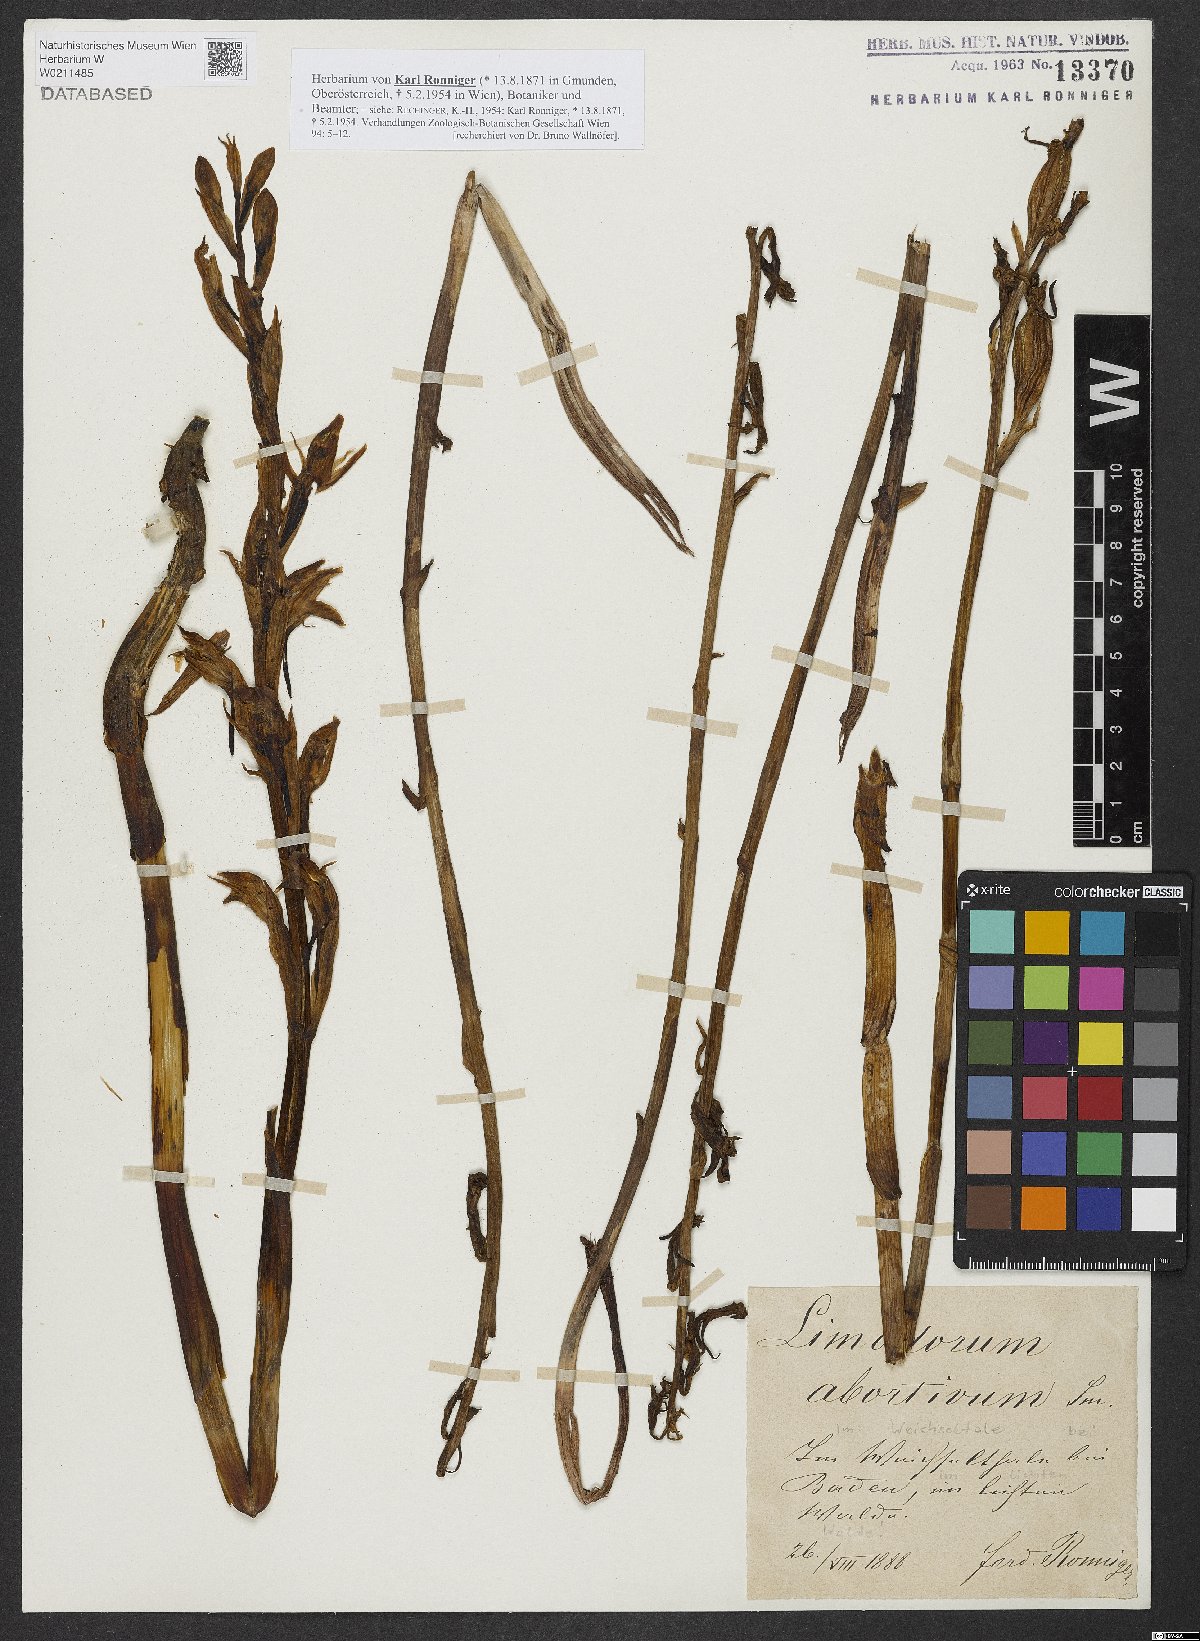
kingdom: Plantae
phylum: Tracheophyta
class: Liliopsida
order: Asparagales
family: Orchidaceae
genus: Limodorum
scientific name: Limodorum abortivum
